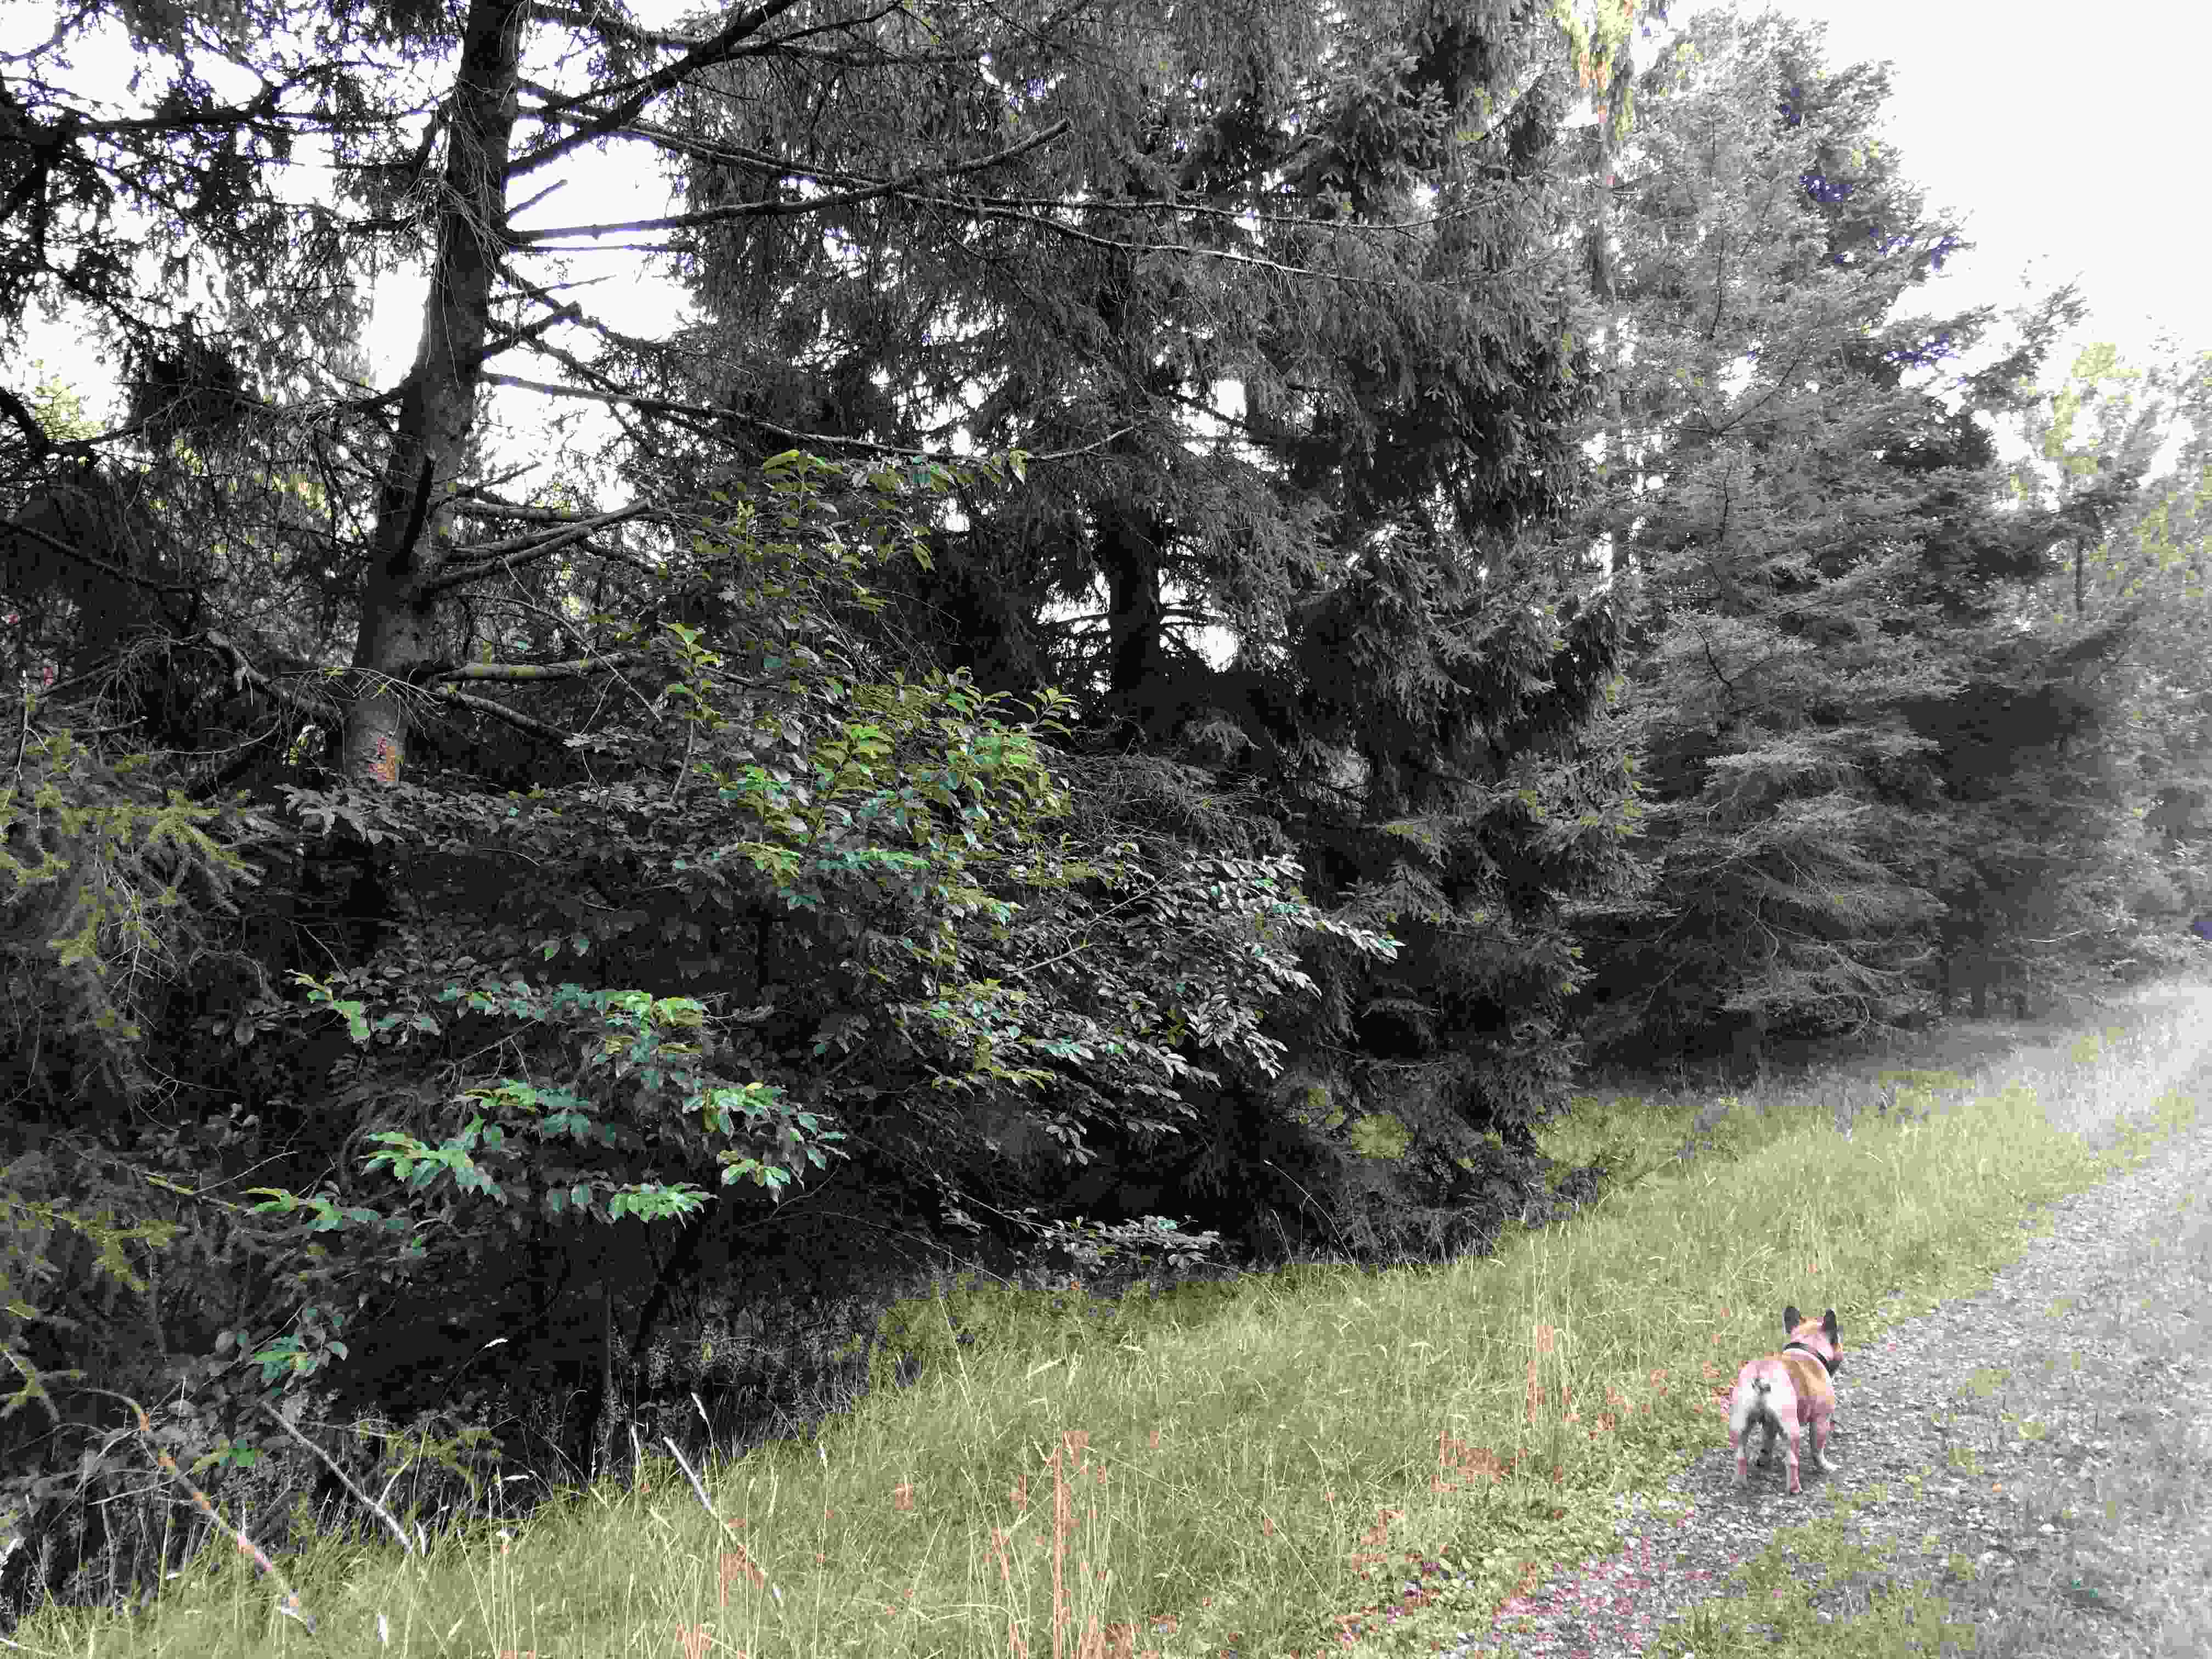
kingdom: Fungi
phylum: Basidiomycota
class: Agaricomycetes
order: Agaricales
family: Tricholomataceae
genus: Clitocybe
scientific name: Clitocybe costata
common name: brunstokket tragthat
